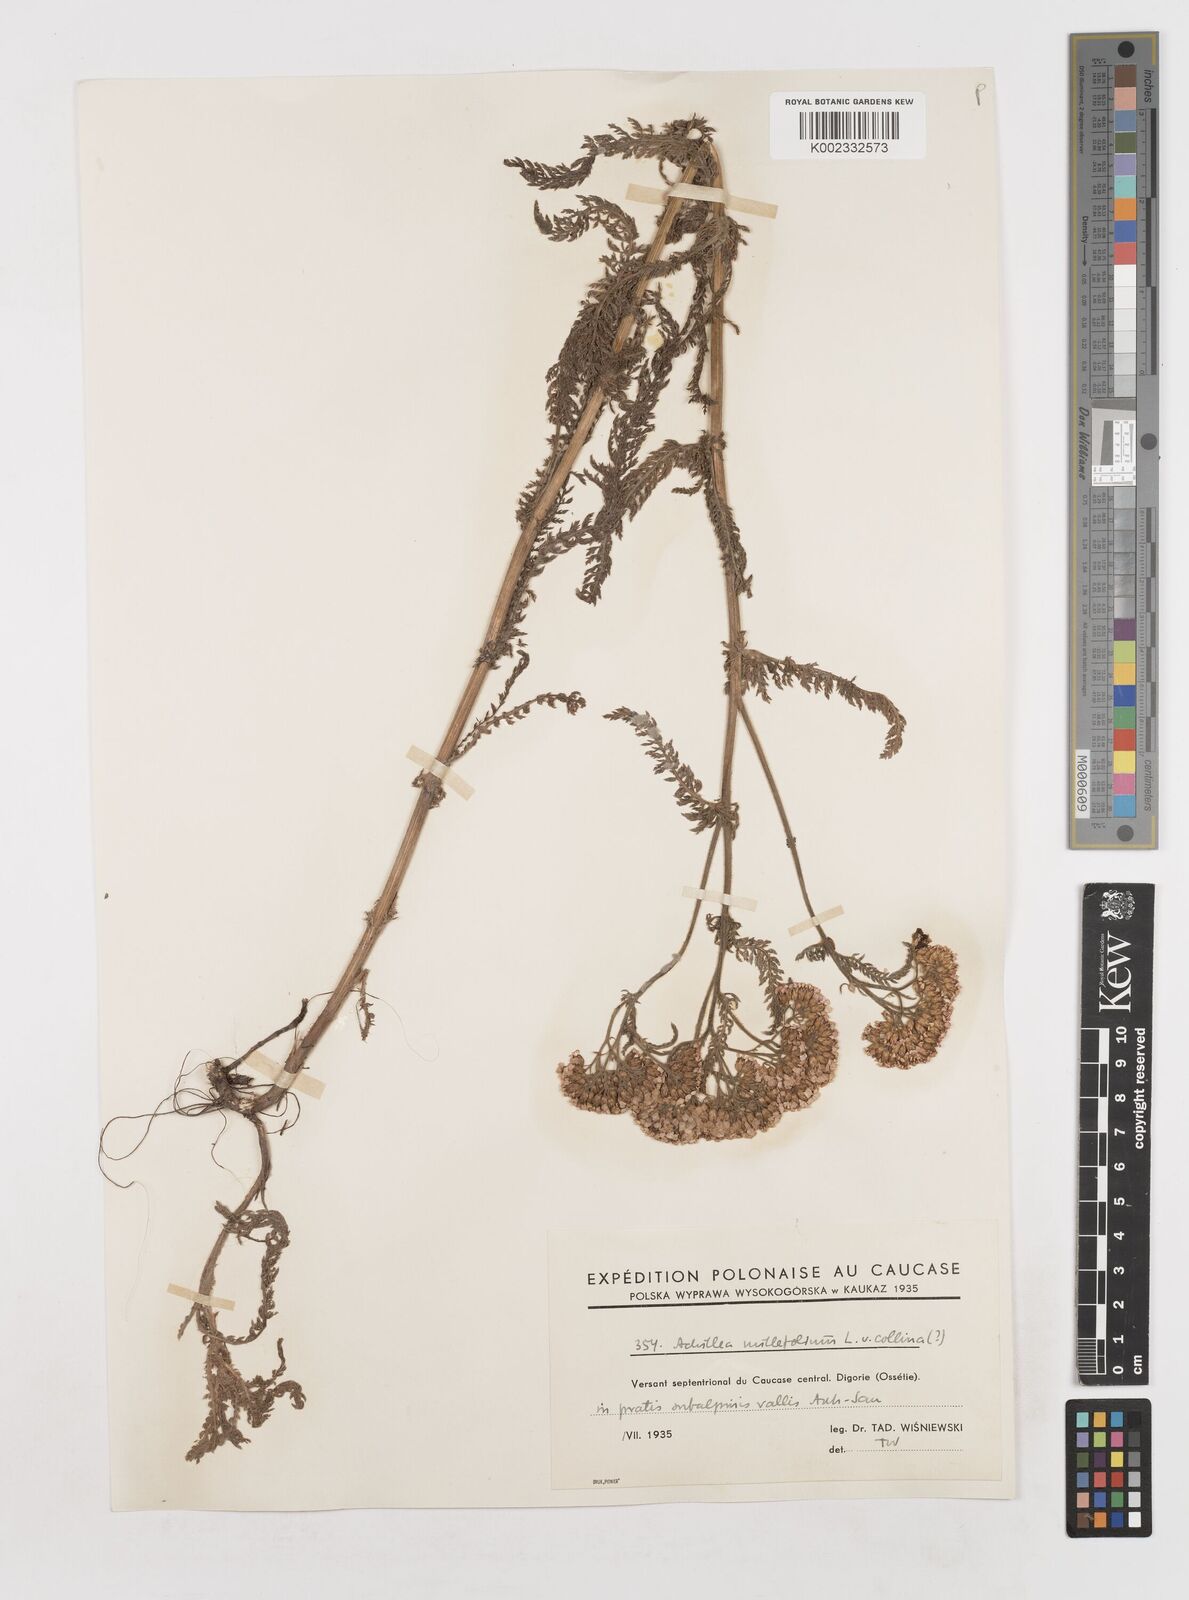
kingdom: Plantae
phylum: Tracheophyta
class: Magnoliopsida
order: Asterales
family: Asteraceae
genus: Achillea
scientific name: Achillea millefolium
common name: Yarrow
